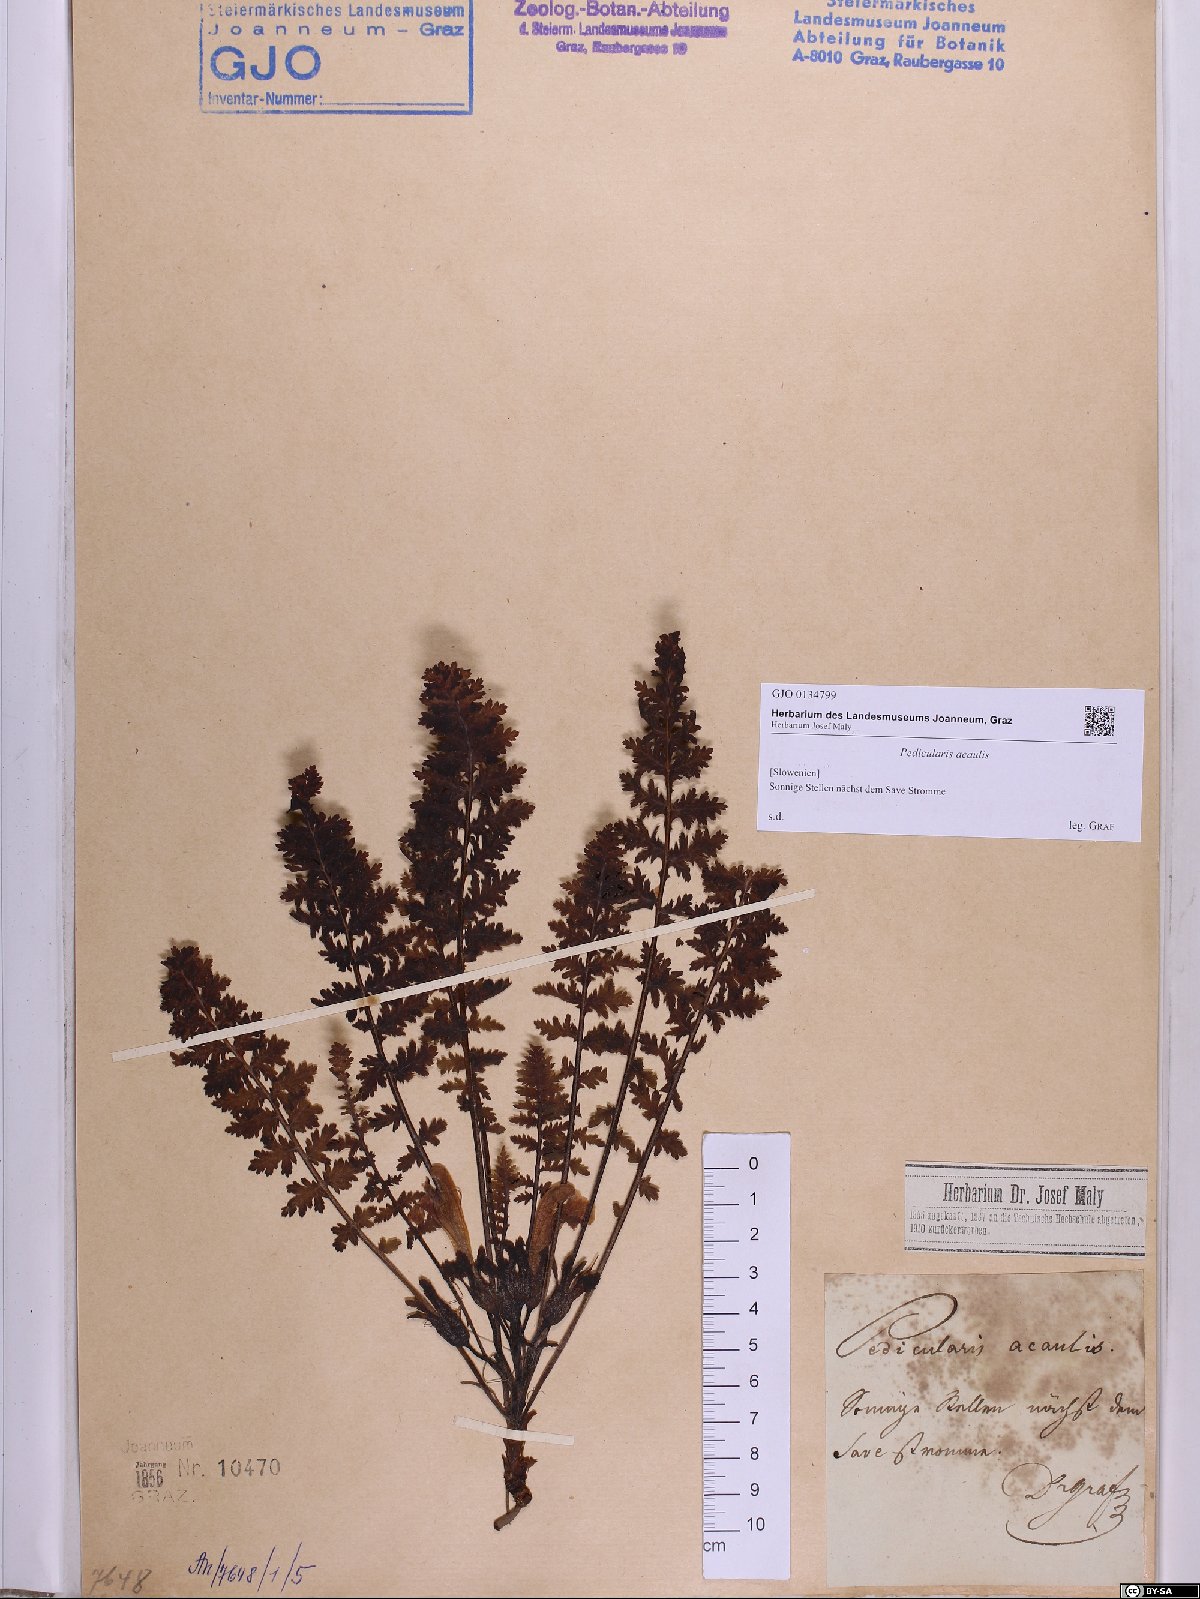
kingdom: Plantae
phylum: Tracheophyta
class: Magnoliopsida
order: Lamiales
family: Orobanchaceae
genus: Pedicularis
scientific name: Pedicularis acaulis
